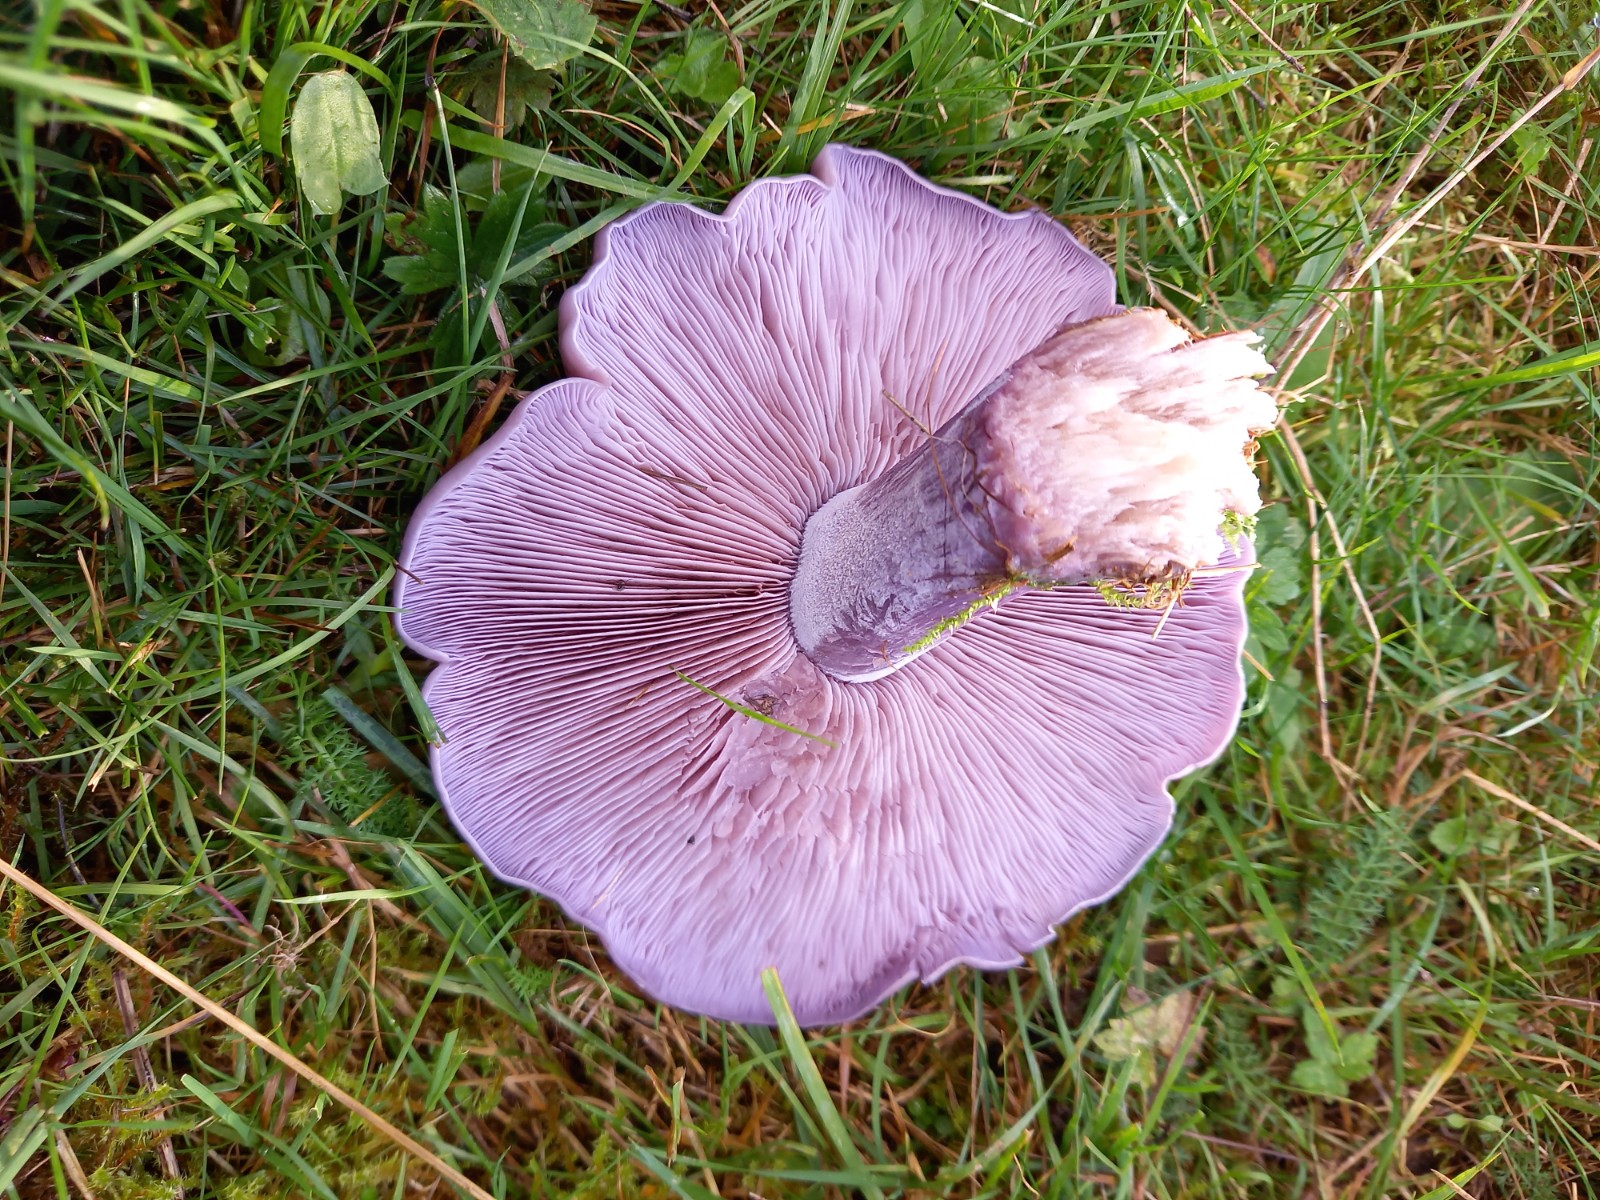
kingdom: Fungi
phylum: Basidiomycota
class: Agaricomycetes
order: Agaricales
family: Tricholomataceae
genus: Lepista
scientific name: Lepista nuda
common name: violet hekseringshat
